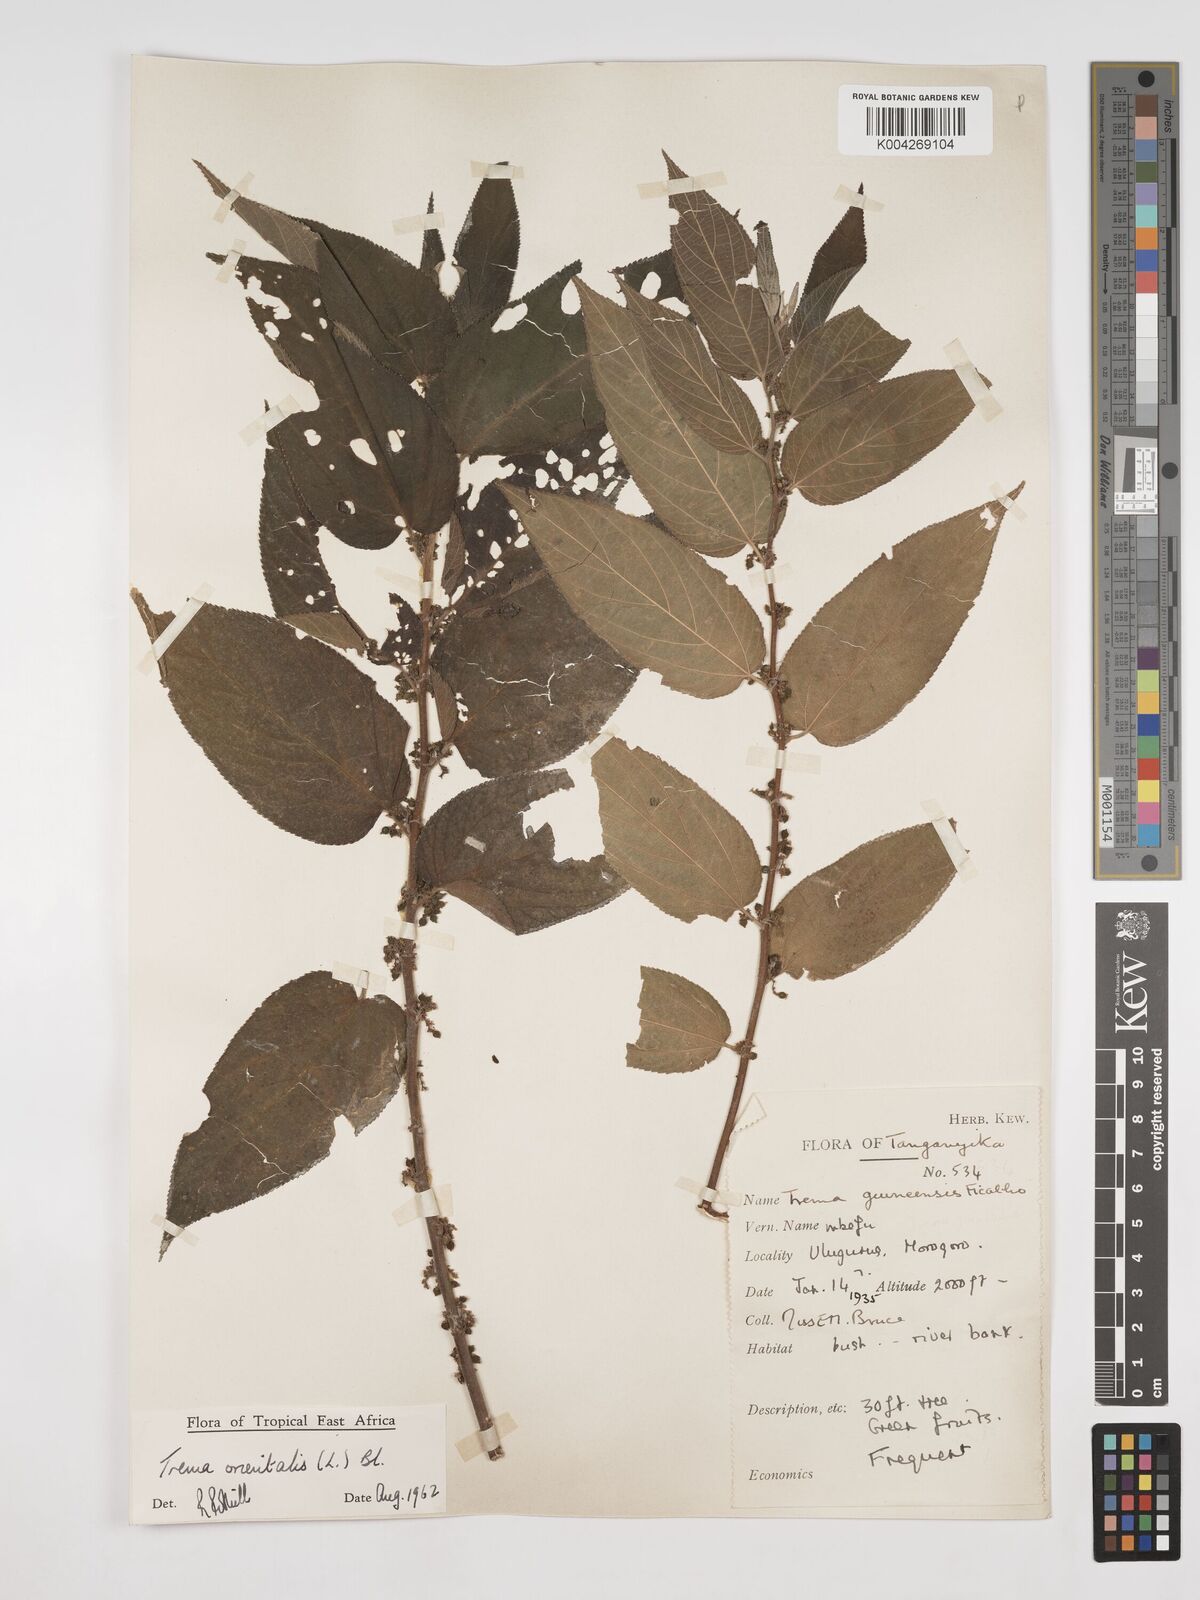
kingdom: Plantae
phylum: Tracheophyta
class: Magnoliopsida
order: Rosales
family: Cannabaceae
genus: Trema
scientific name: Trema orientale
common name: Indian charcoal tree
